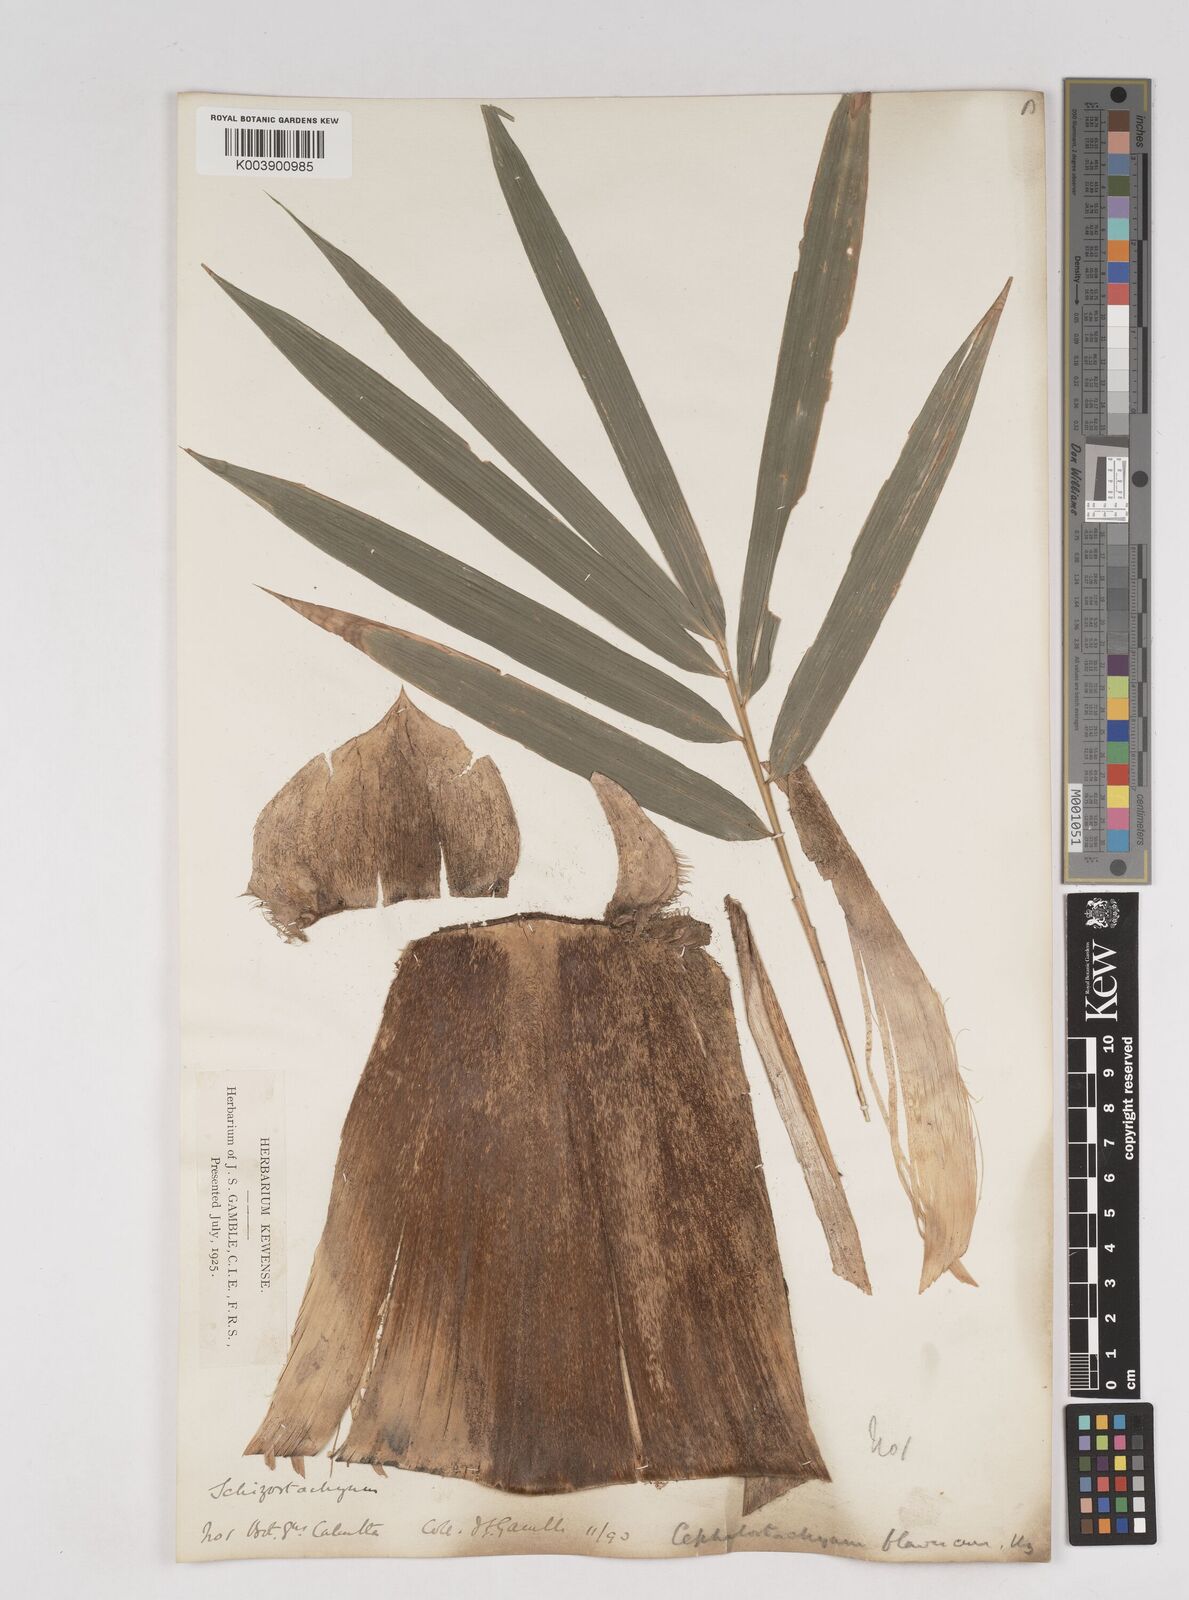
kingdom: Plantae
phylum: Tracheophyta
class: Liliopsida
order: Poales
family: Poaceae
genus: Cephalostachyum
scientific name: Cephalostachyum flavescens
